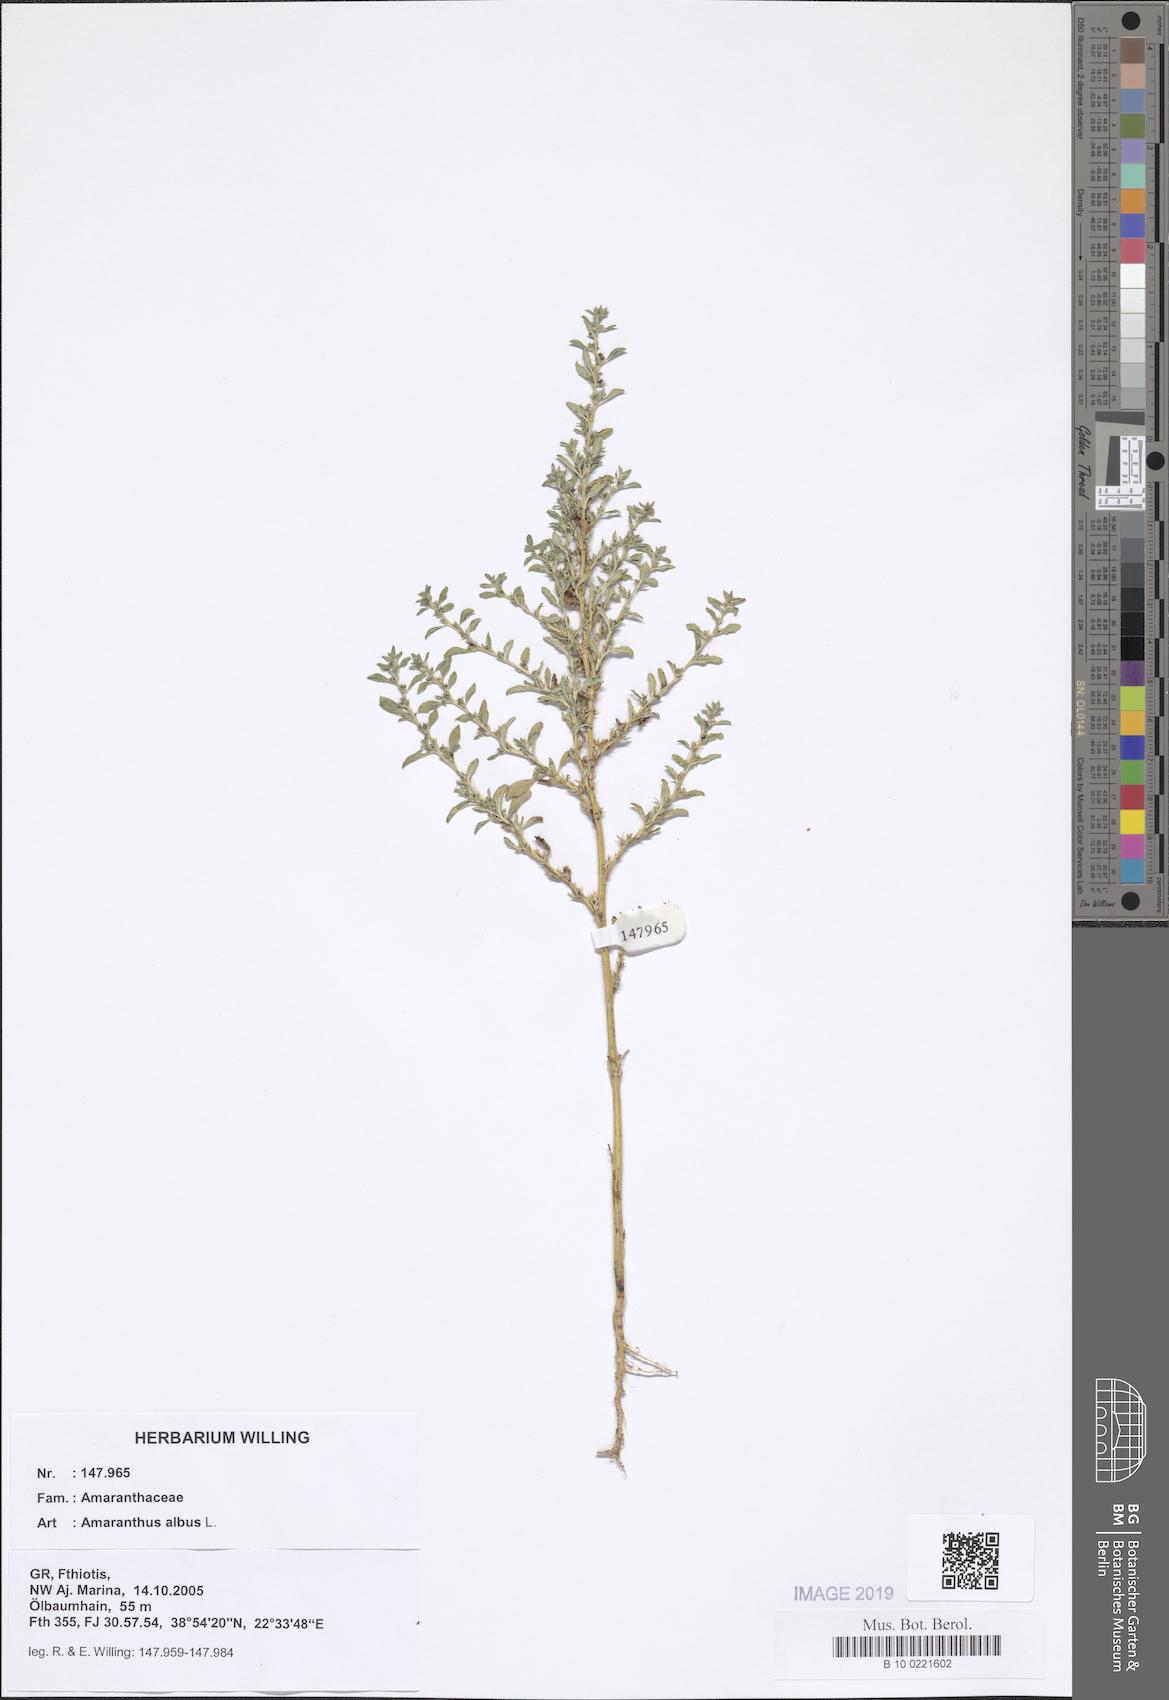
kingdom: Plantae
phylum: Tracheophyta
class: Magnoliopsida
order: Caryophyllales
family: Amaranthaceae
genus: Amaranthus
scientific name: Amaranthus albus
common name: White pigweed
